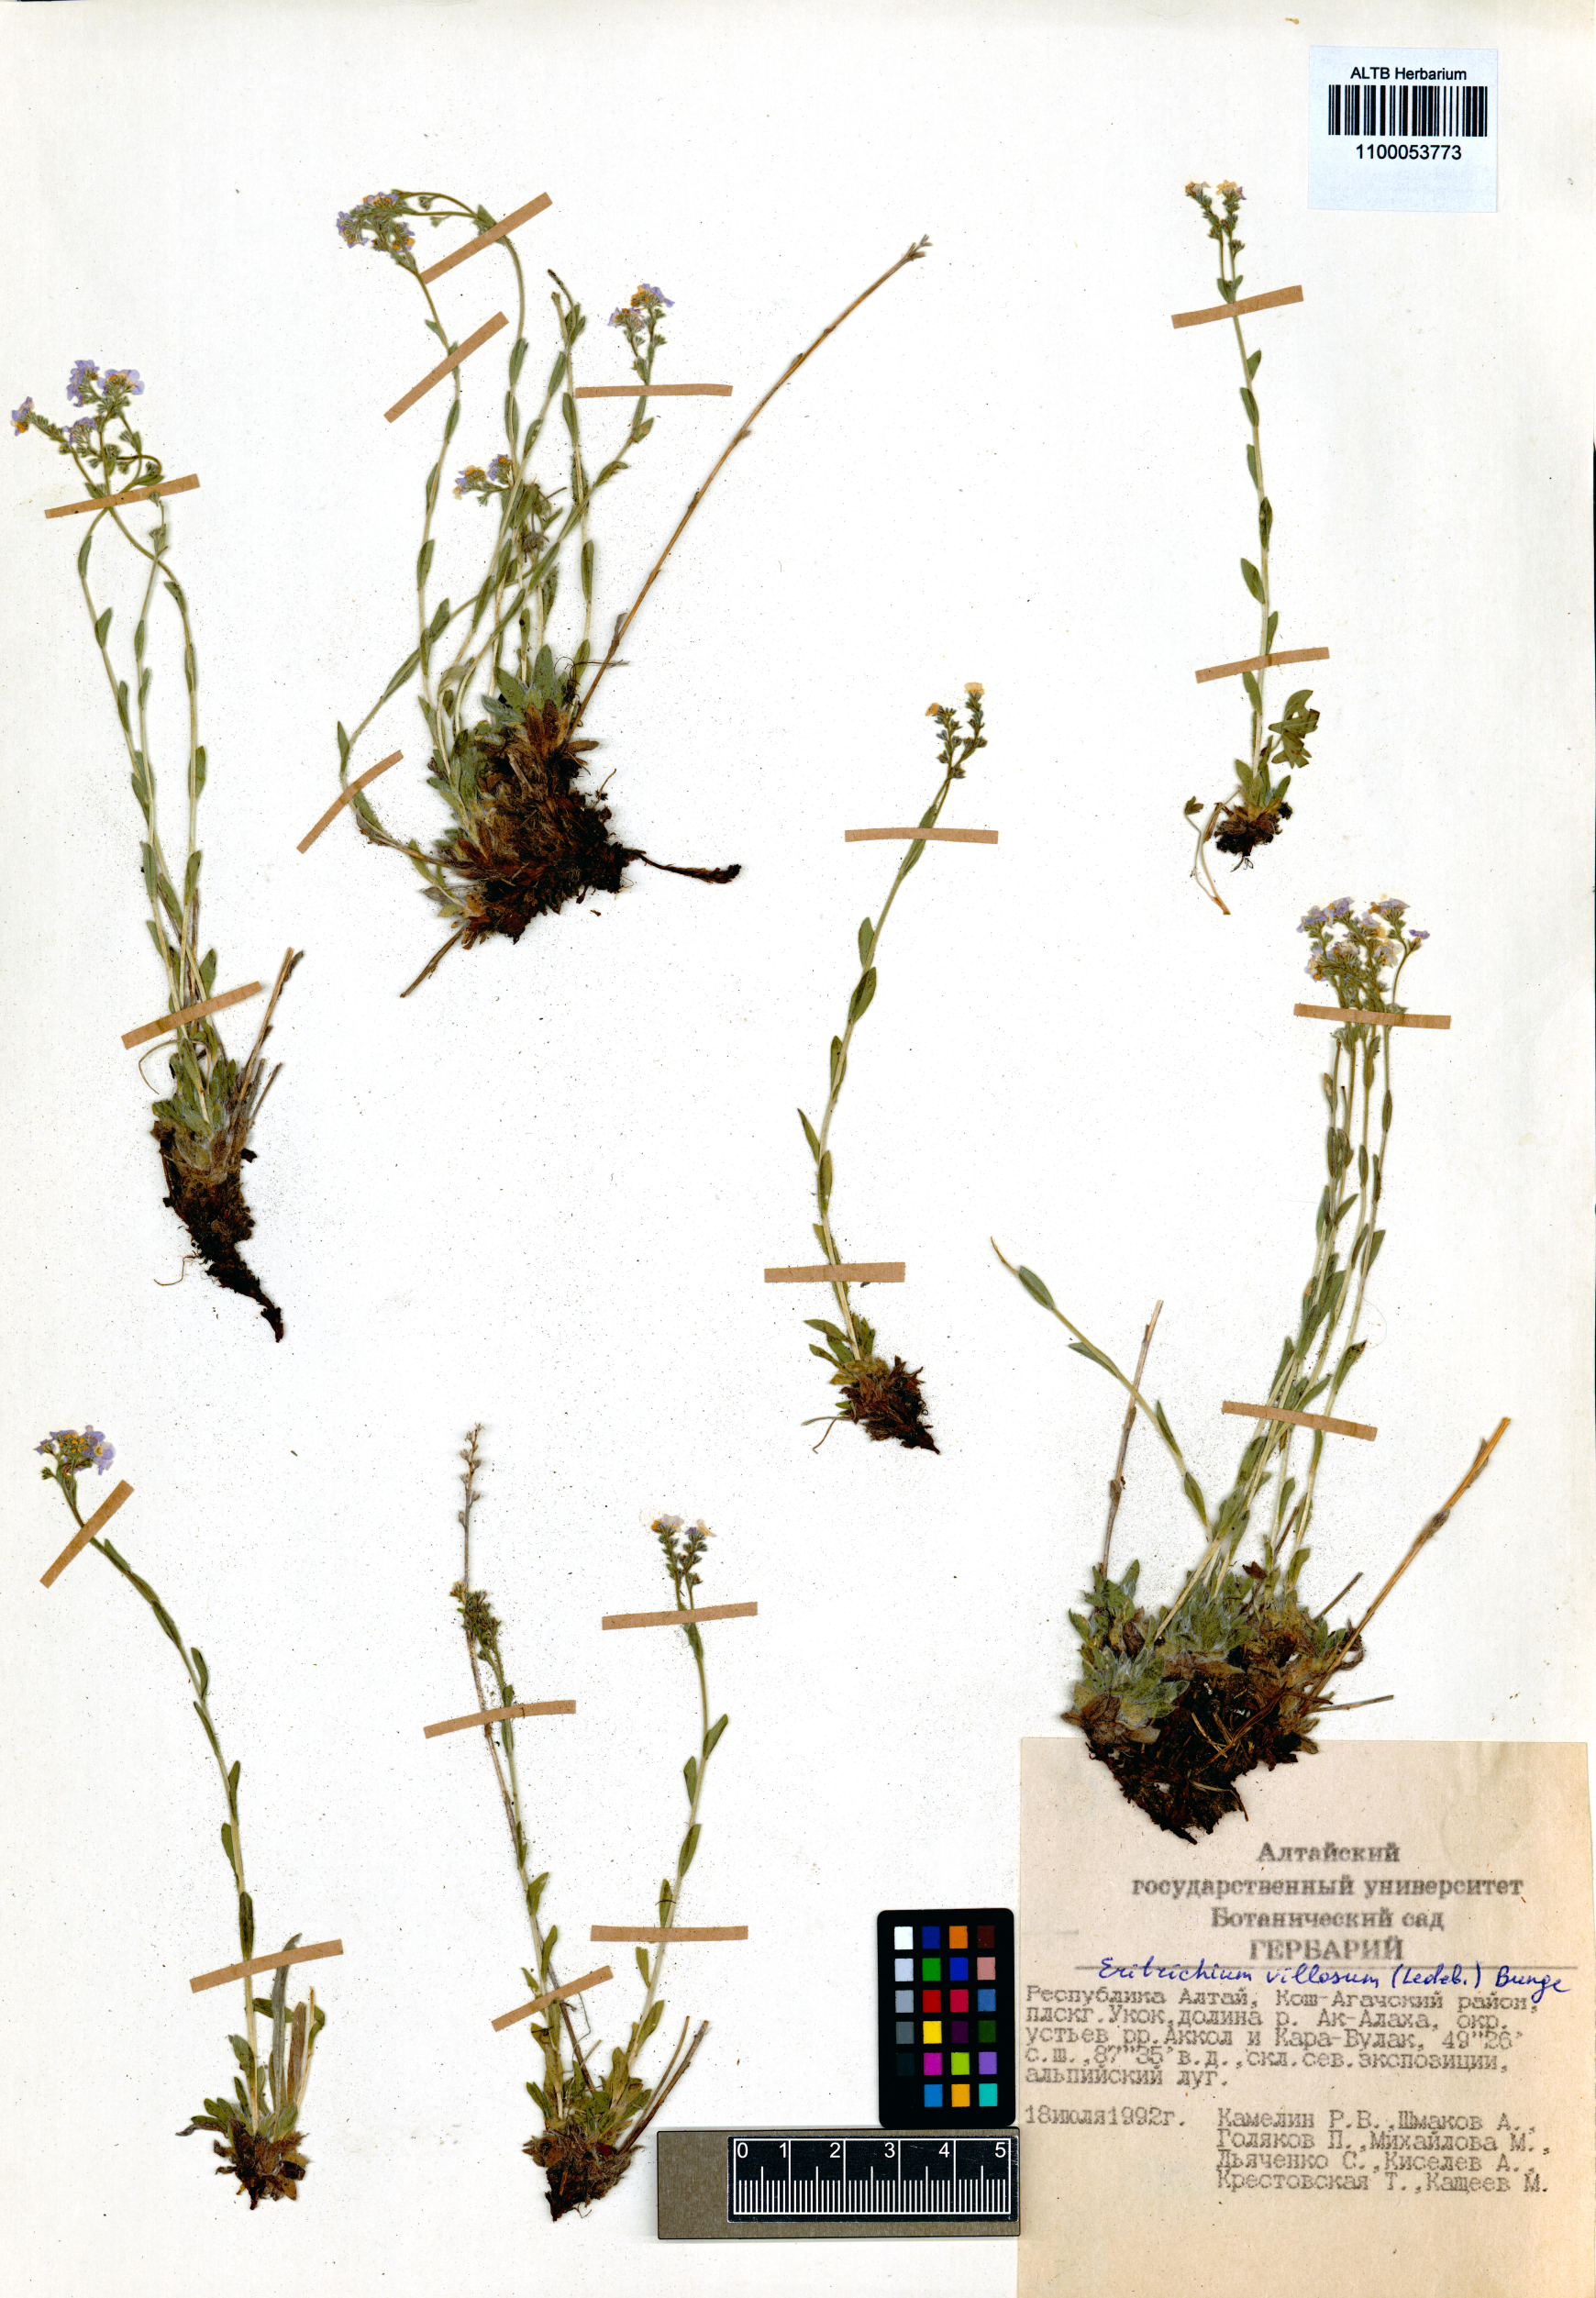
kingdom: Plantae
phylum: Tracheophyta
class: Magnoliopsida
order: Boraginales
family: Boraginaceae
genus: Eritrichium
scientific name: Eritrichium villosum
